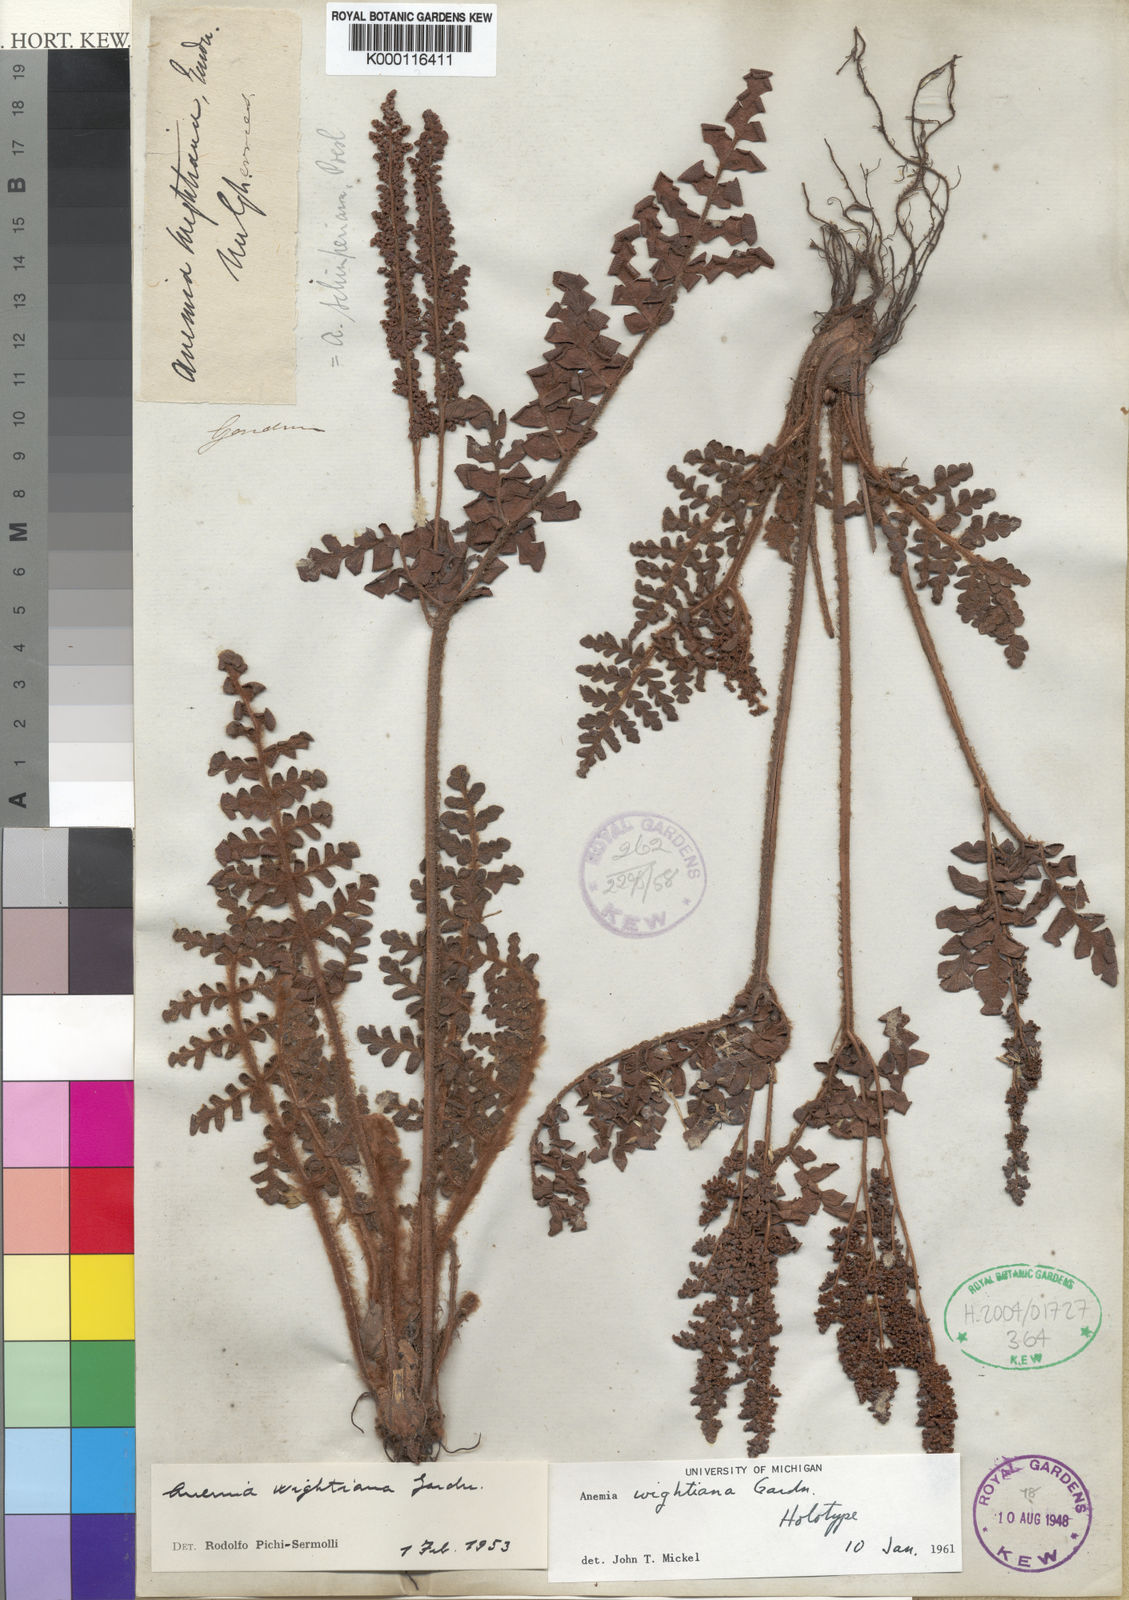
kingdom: Plantae
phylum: Tracheophyta
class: Polypodiopsida
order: Schizaeales
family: Anemiaceae
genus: Anemia
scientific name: Anemia schimperiana
